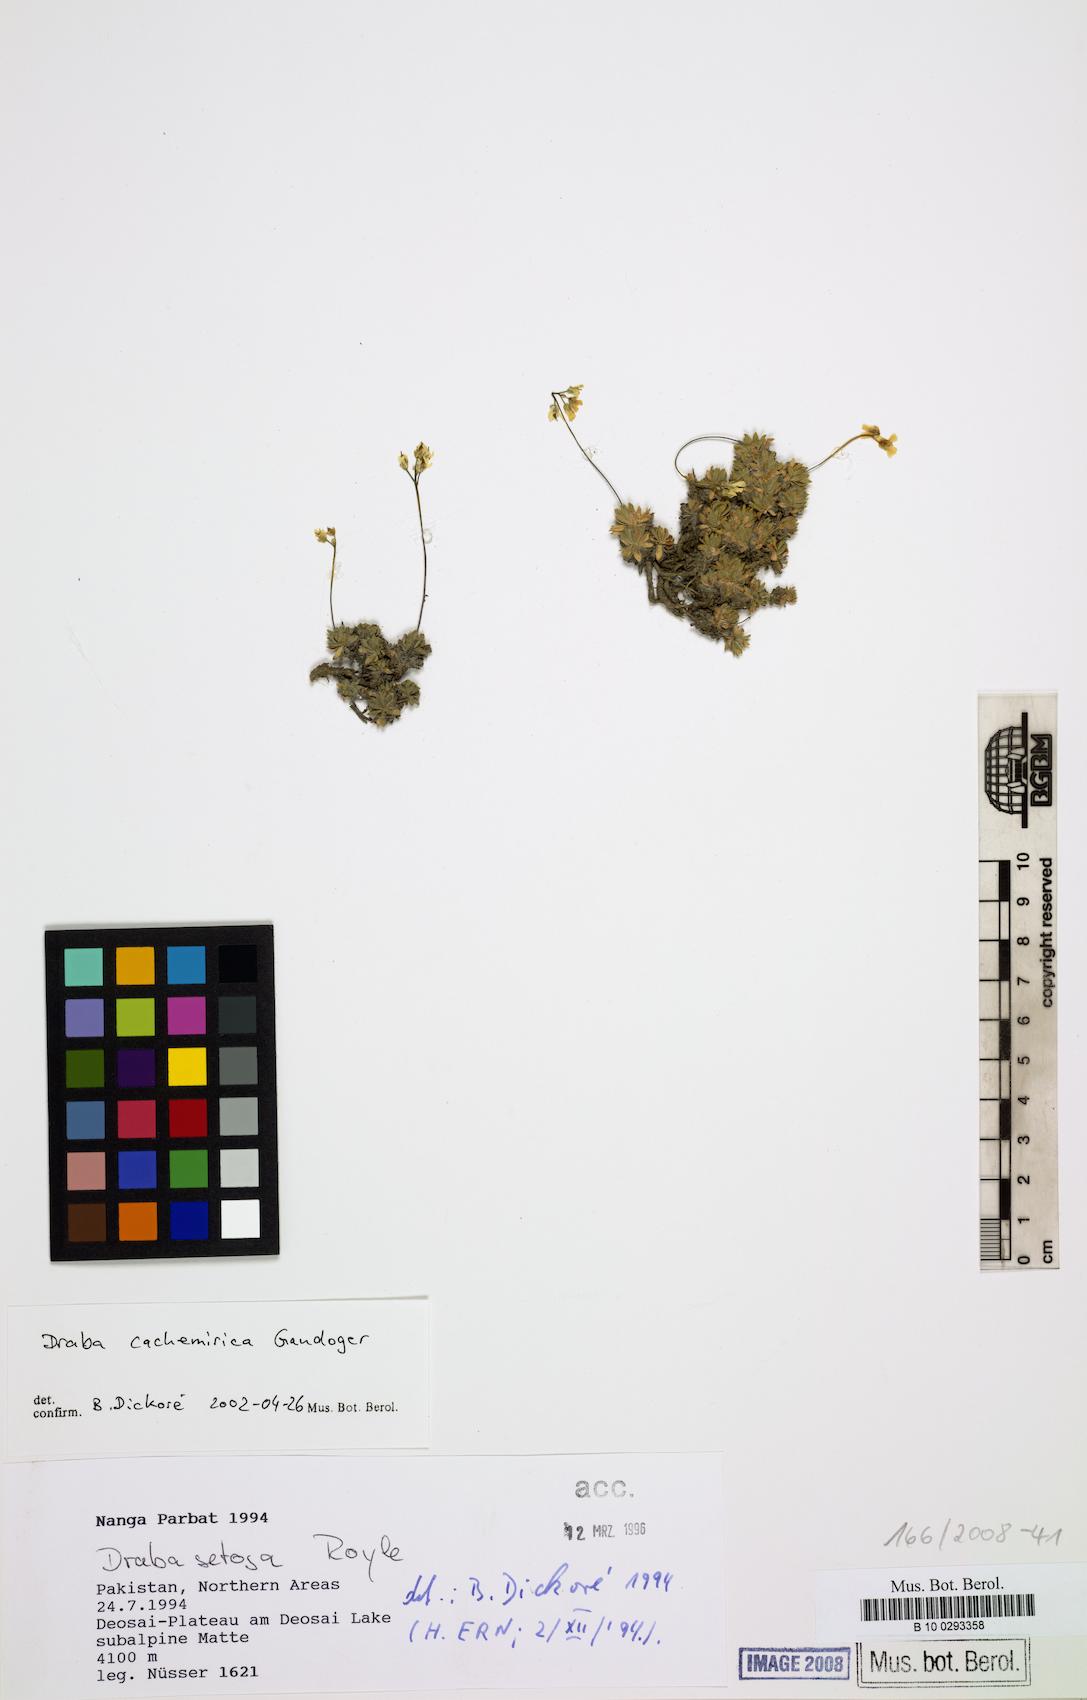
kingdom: Plantae
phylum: Tracheophyta
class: Magnoliopsida
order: Brassicales
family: Brassicaceae
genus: Draba
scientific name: Draba cachemirica
